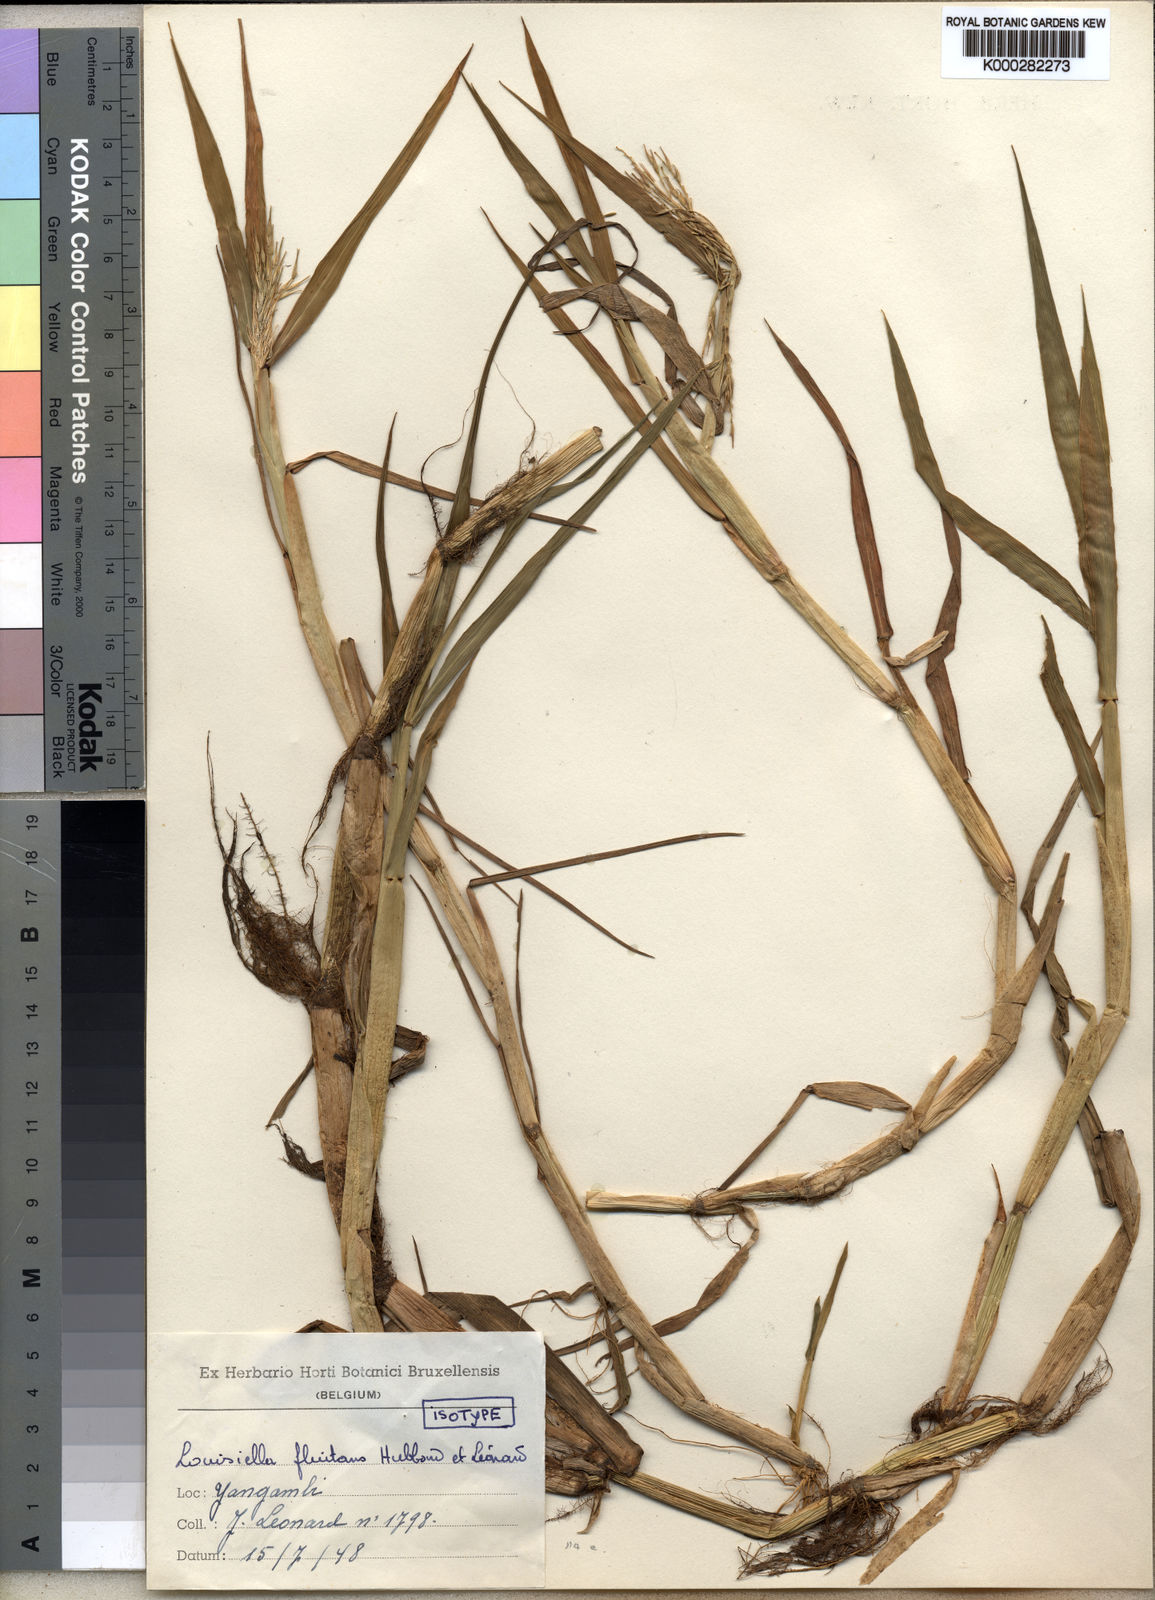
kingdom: Plantae
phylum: Tracheophyta
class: Liliopsida
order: Poales
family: Poaceae
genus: Louisiella
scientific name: Louisiella
